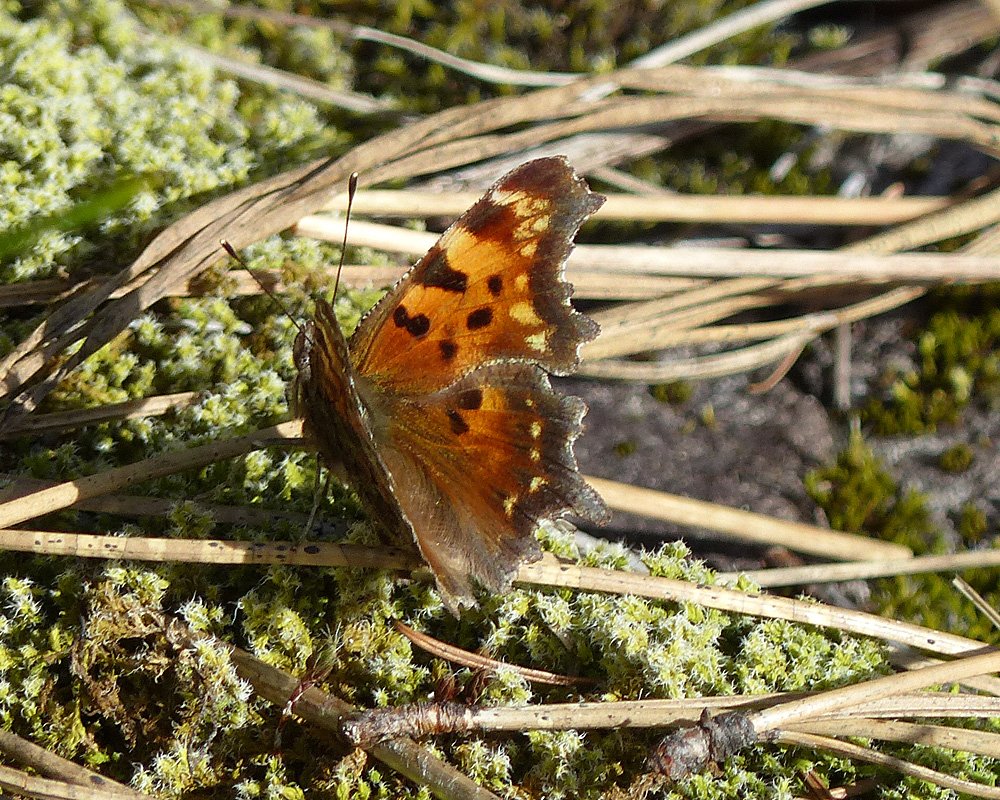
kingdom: Animalia
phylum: Arthropoda
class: Insecta
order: Lepidoptera
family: Nymphalidae
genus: Polygonia
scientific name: Polygonia faunus
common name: Green Comma
